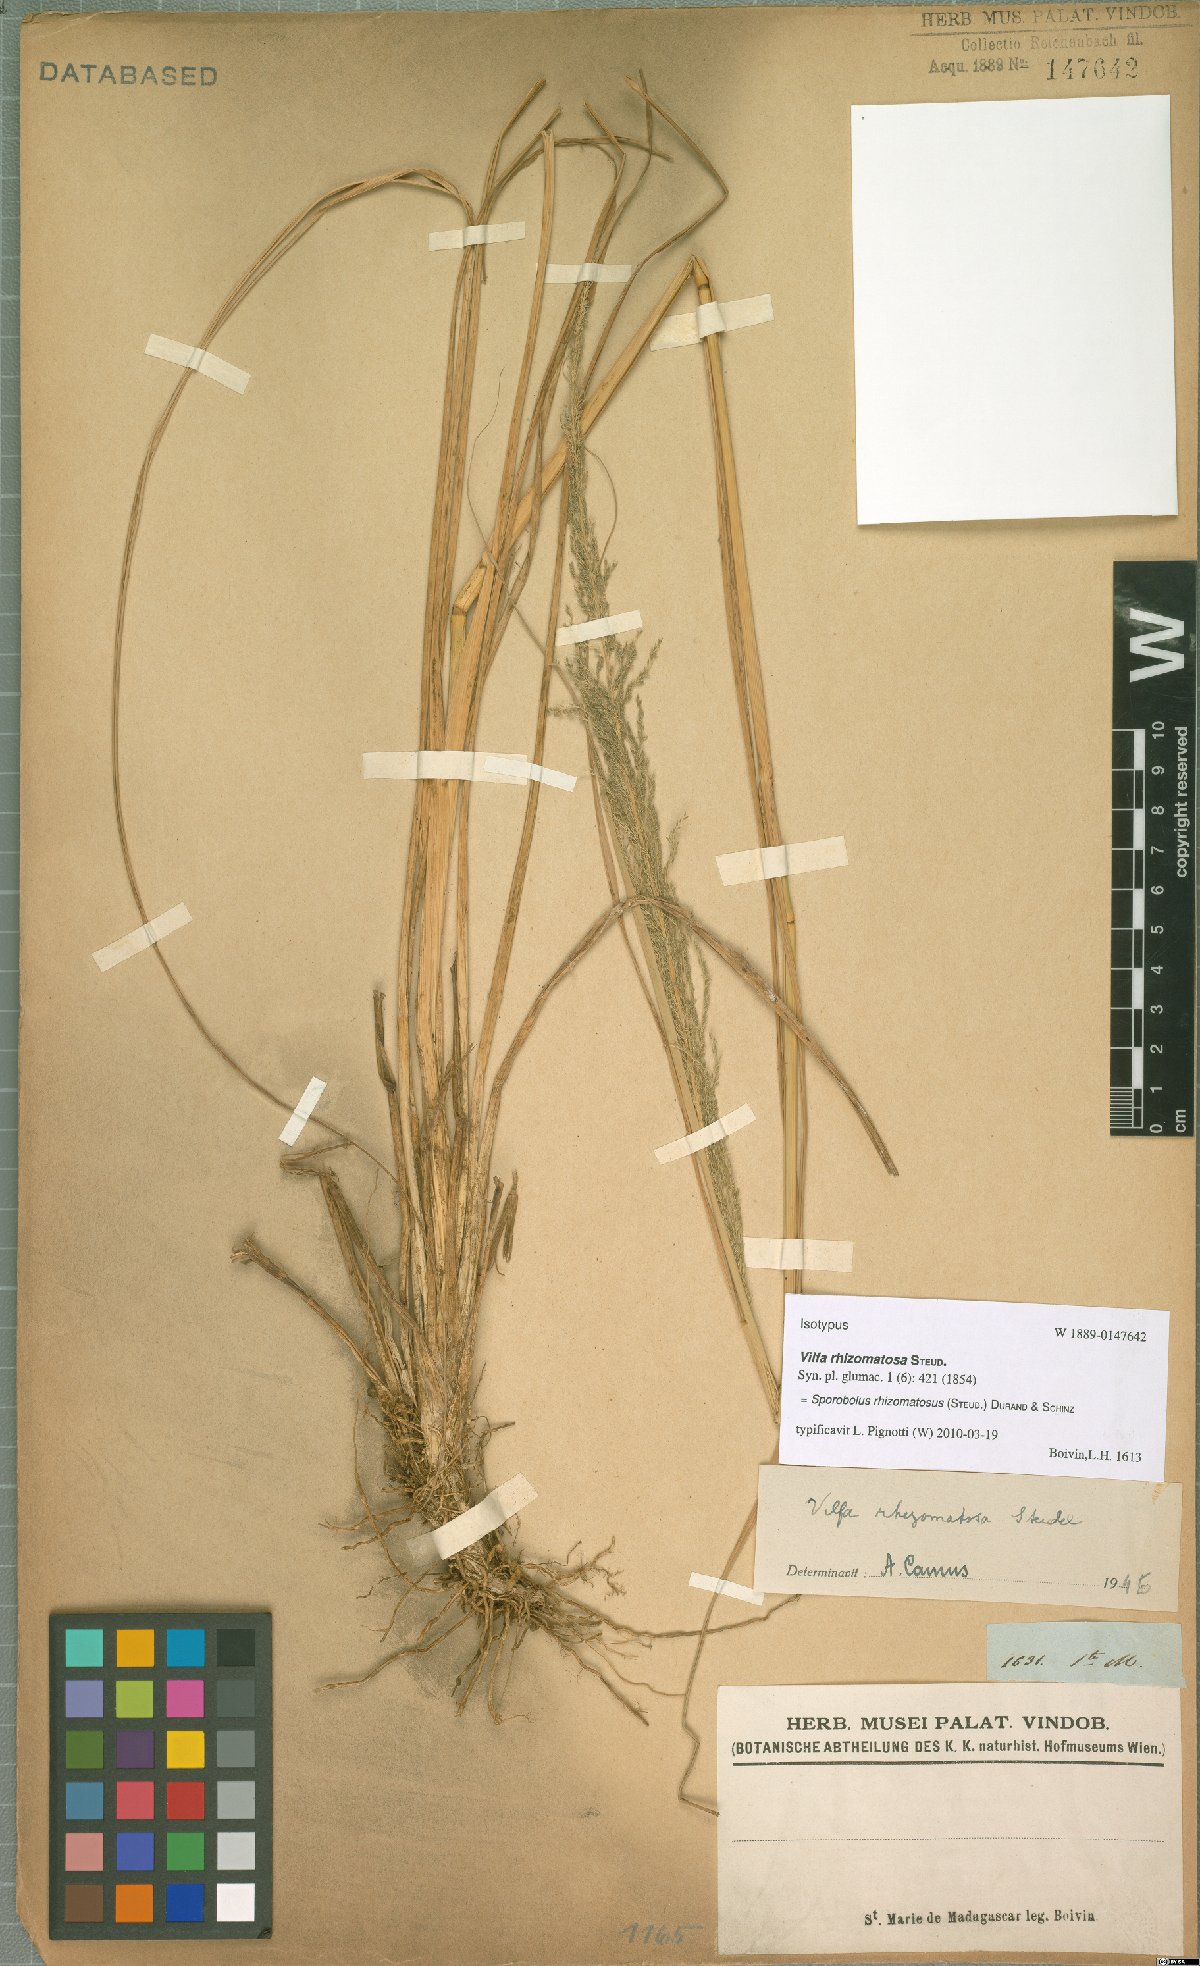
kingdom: Plantae
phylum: Tracheophyta
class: Liliopsida
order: Poales
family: Poaceae
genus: Sporobolus
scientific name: Sporobolus rhizomatosus
